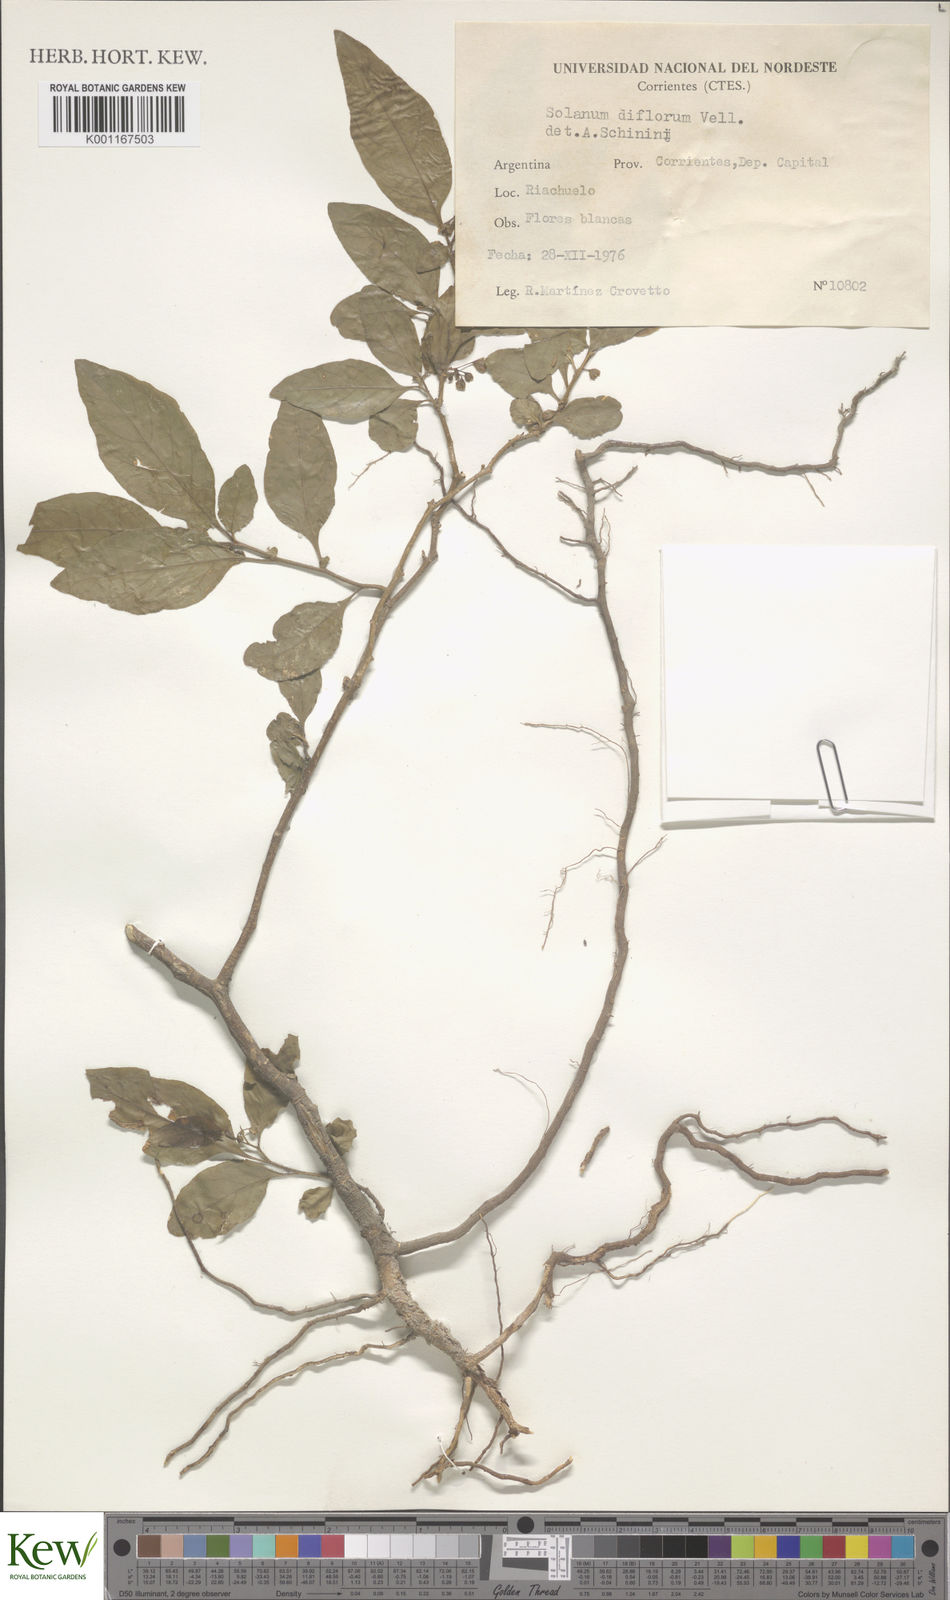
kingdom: Plantae
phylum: Tracheophyta
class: Magnoliopsida
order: Solanales
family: Solanaceae
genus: Solanum
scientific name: Solanum pseudocapsicum
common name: Jerusalem cherry
